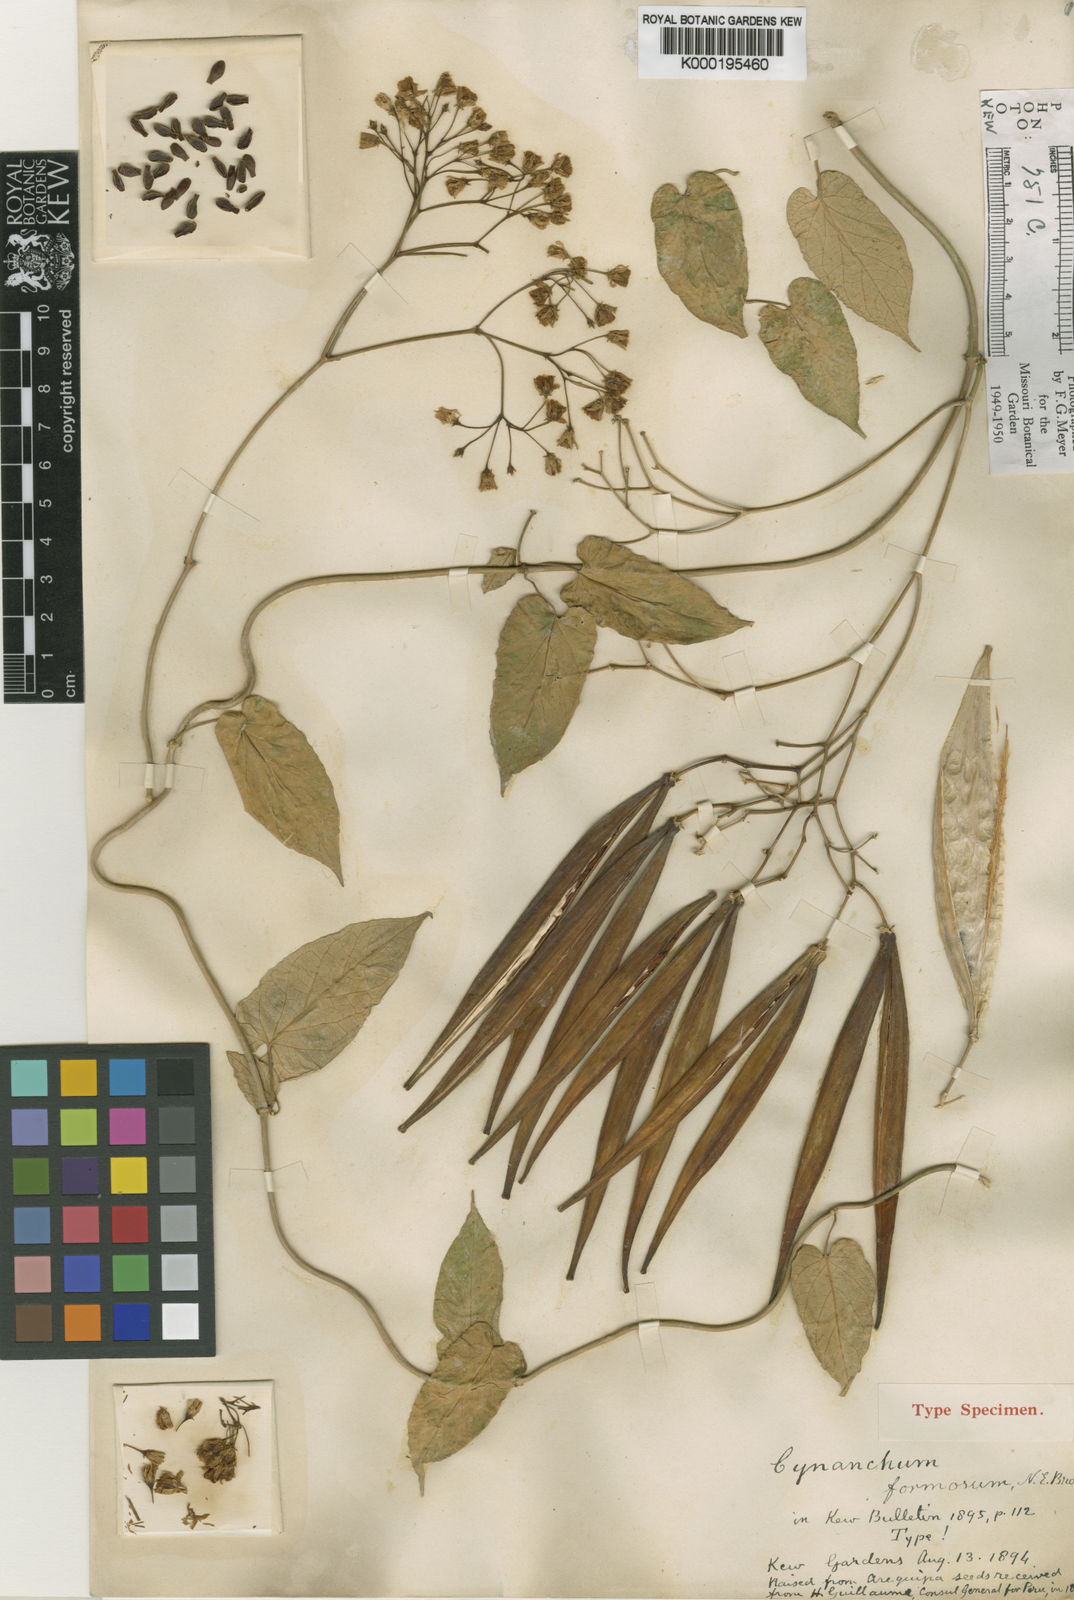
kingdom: Plantae
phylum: Tracheophyta
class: Magnoliopsida
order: Gentianales
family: Apocynaceae
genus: Jobinia
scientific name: Jobinia formosa
